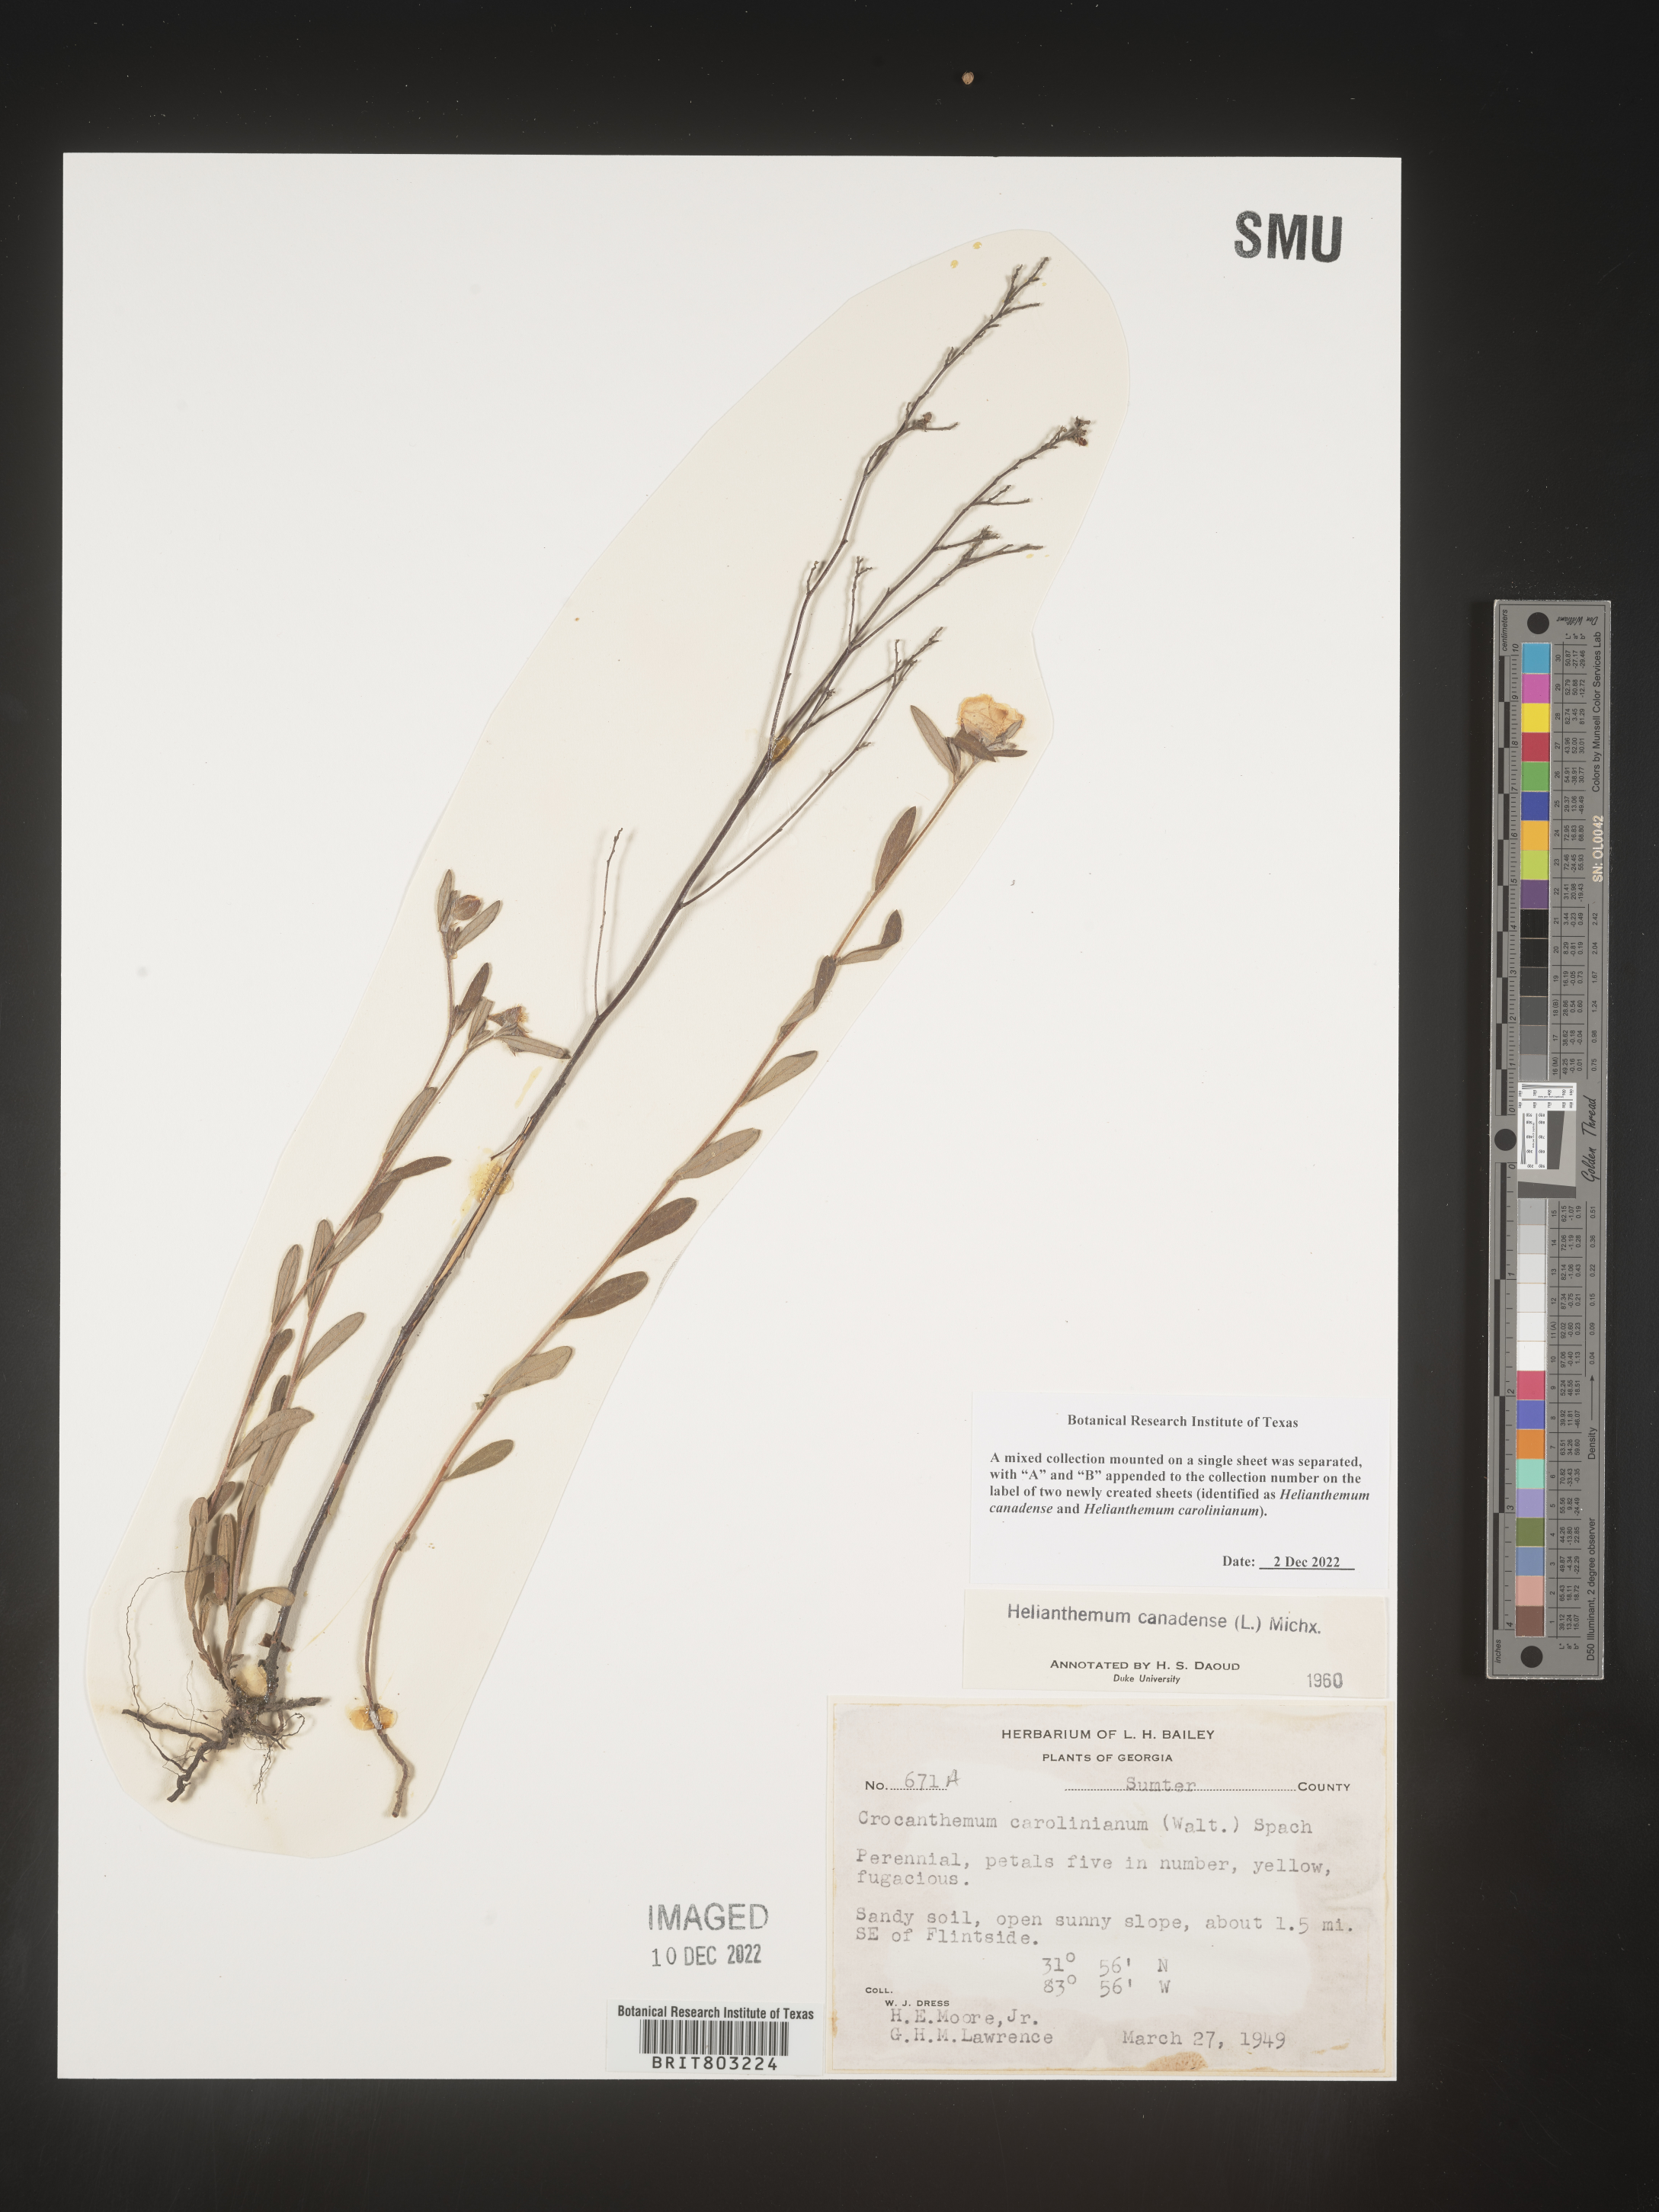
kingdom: Plantae
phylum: Tracheophyta
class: Magnoliopsida
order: Malvales
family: Cistaceae
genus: Crocanthemum
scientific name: Crocanthemum canadense
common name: Canada frostweed
